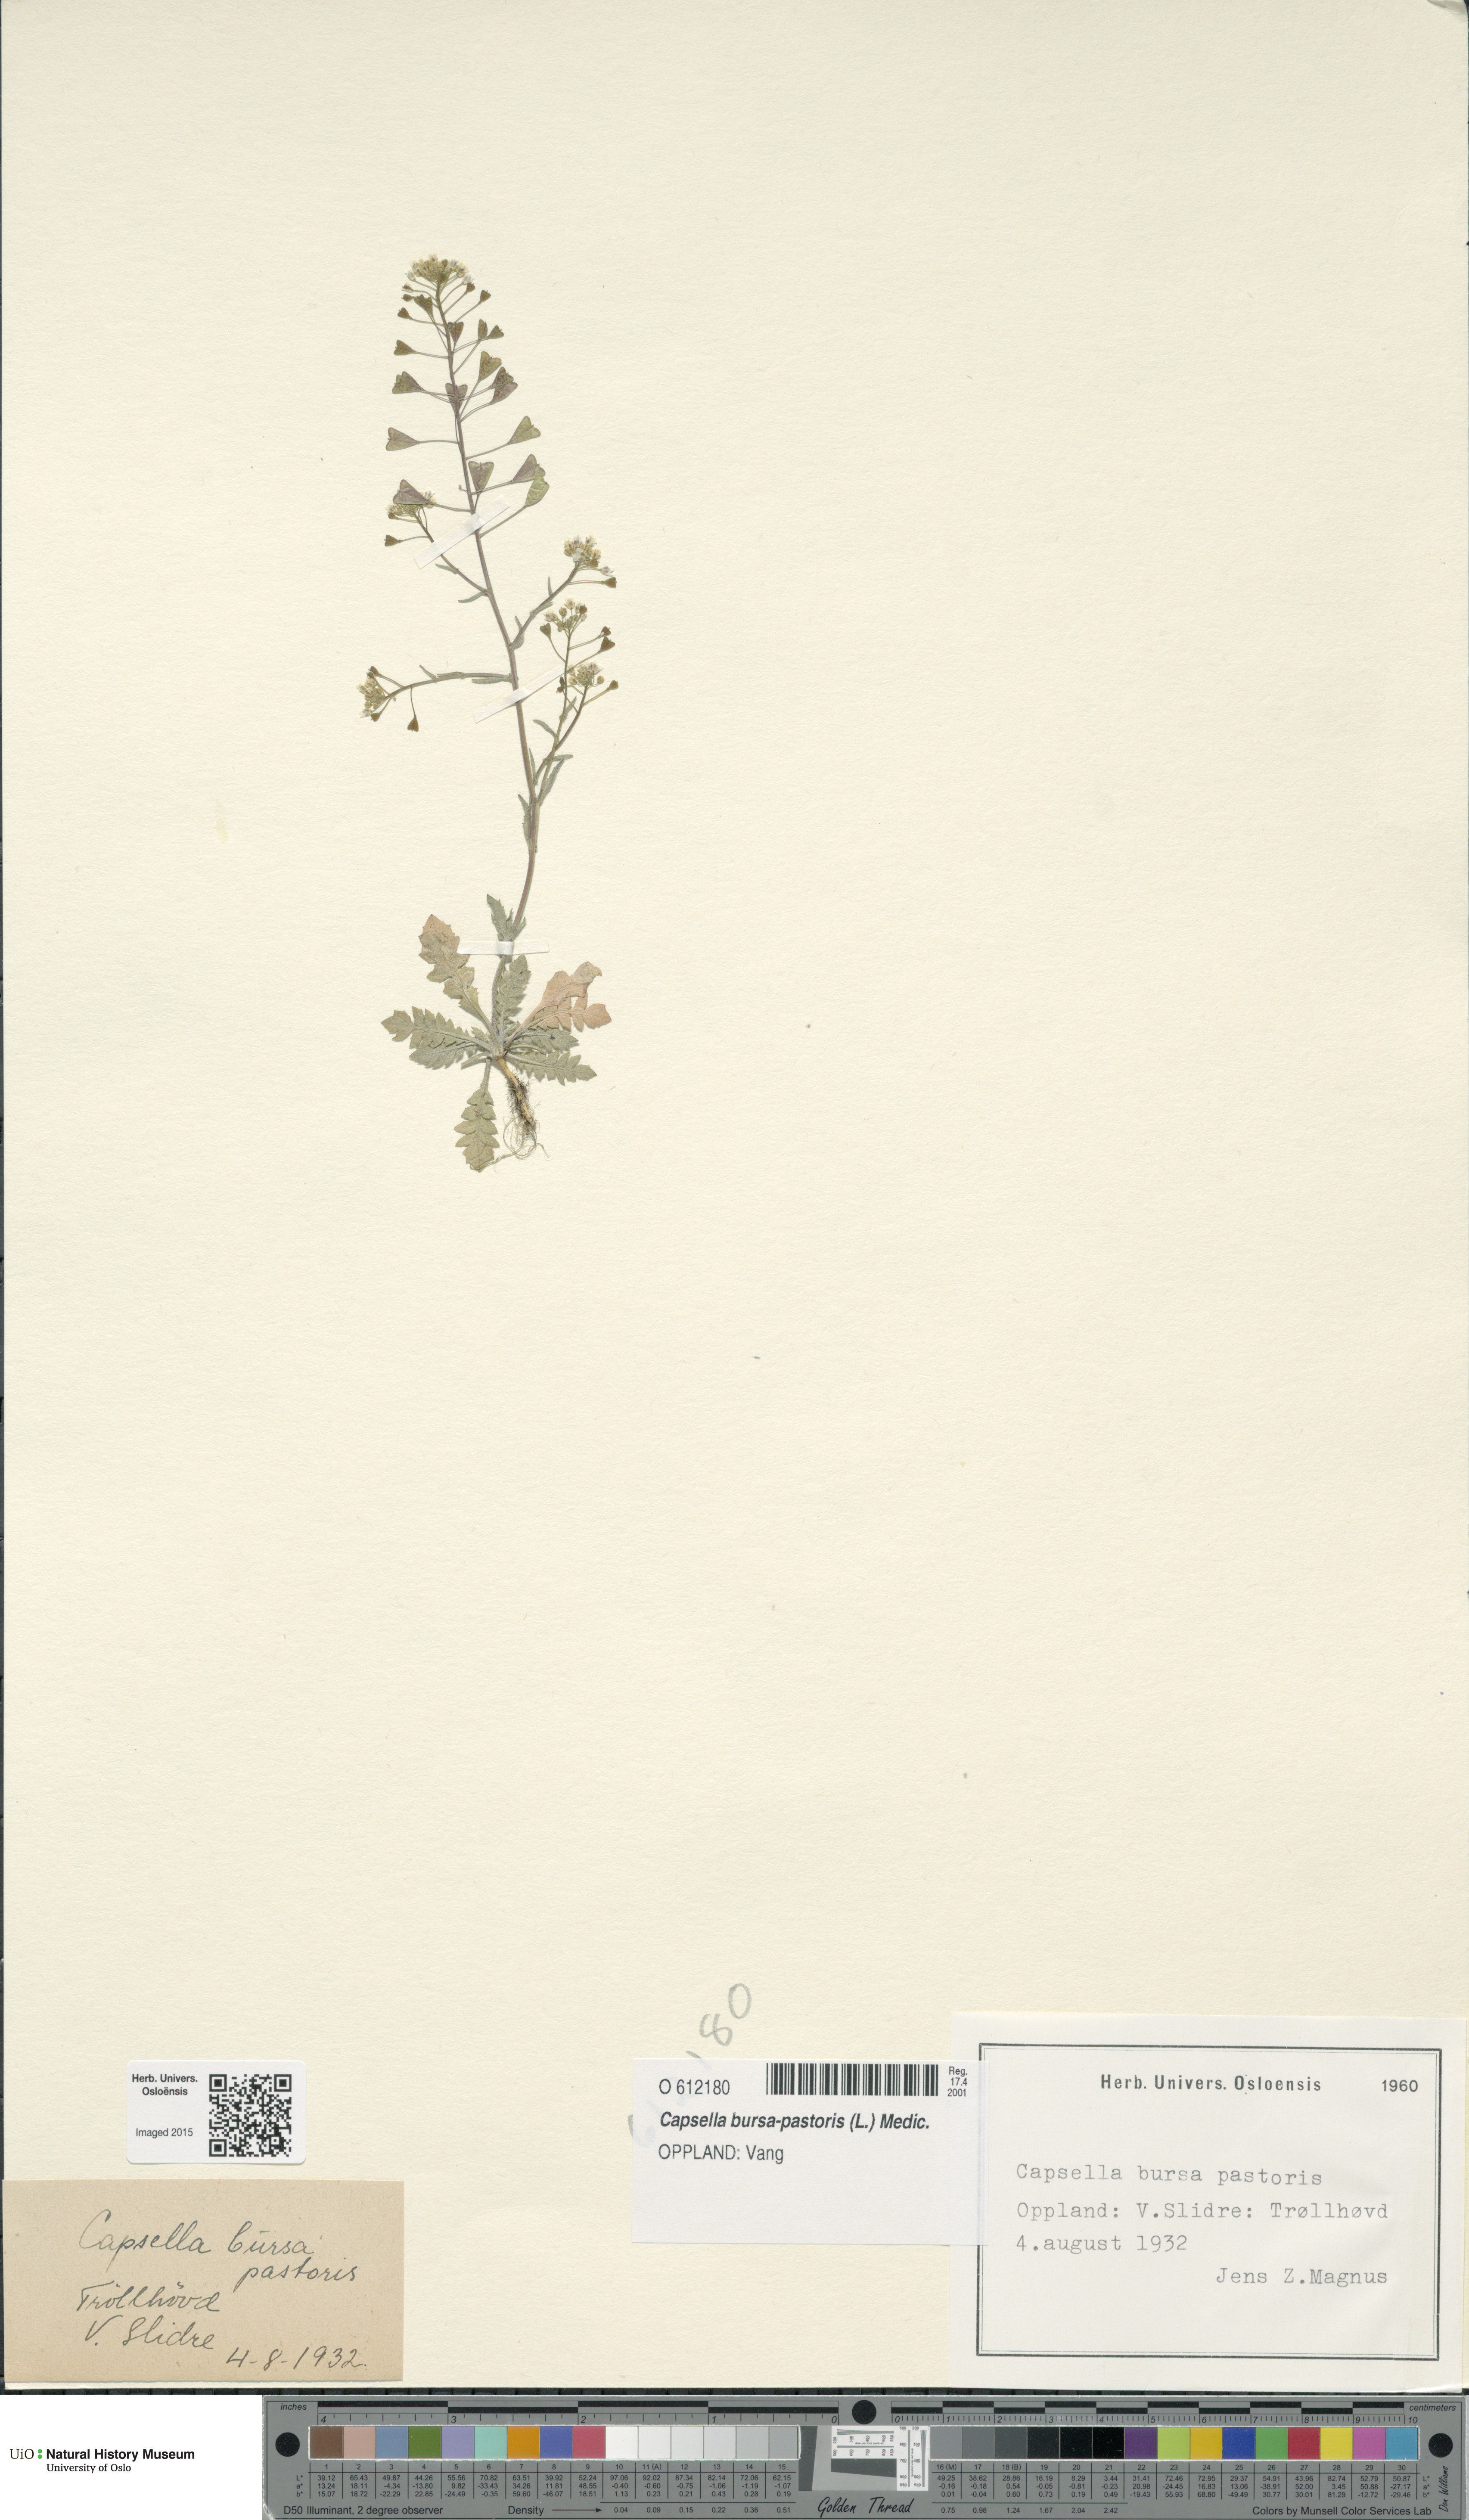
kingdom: Plantae
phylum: Tracheophyta
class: Magnoliopsida
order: Brassicales
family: Brassicaceae
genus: Capsella
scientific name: Capsella bursa-pastoris
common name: Shepherd's purse
